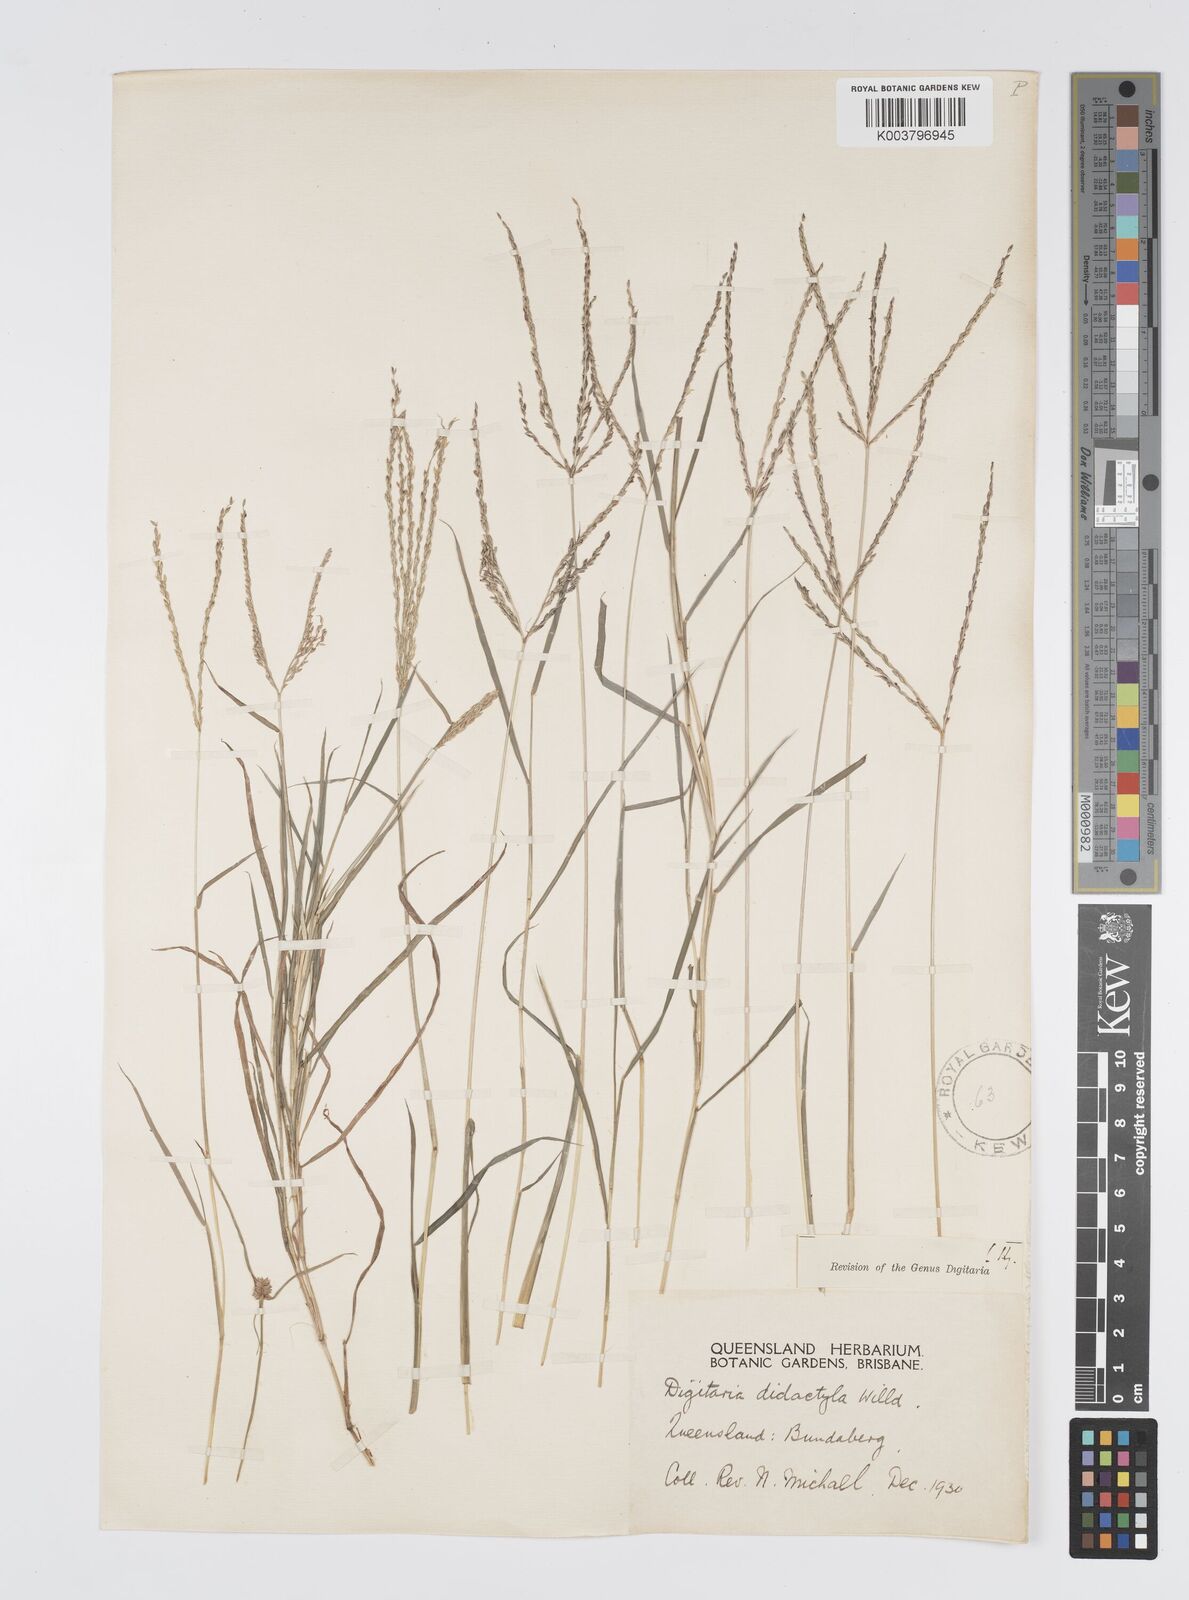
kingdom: Plantae
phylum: Tracheophyta
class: Liliopsida
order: Poales
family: Poaceae
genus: Digitaria
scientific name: Digitaria didactyla
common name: Blue couch
